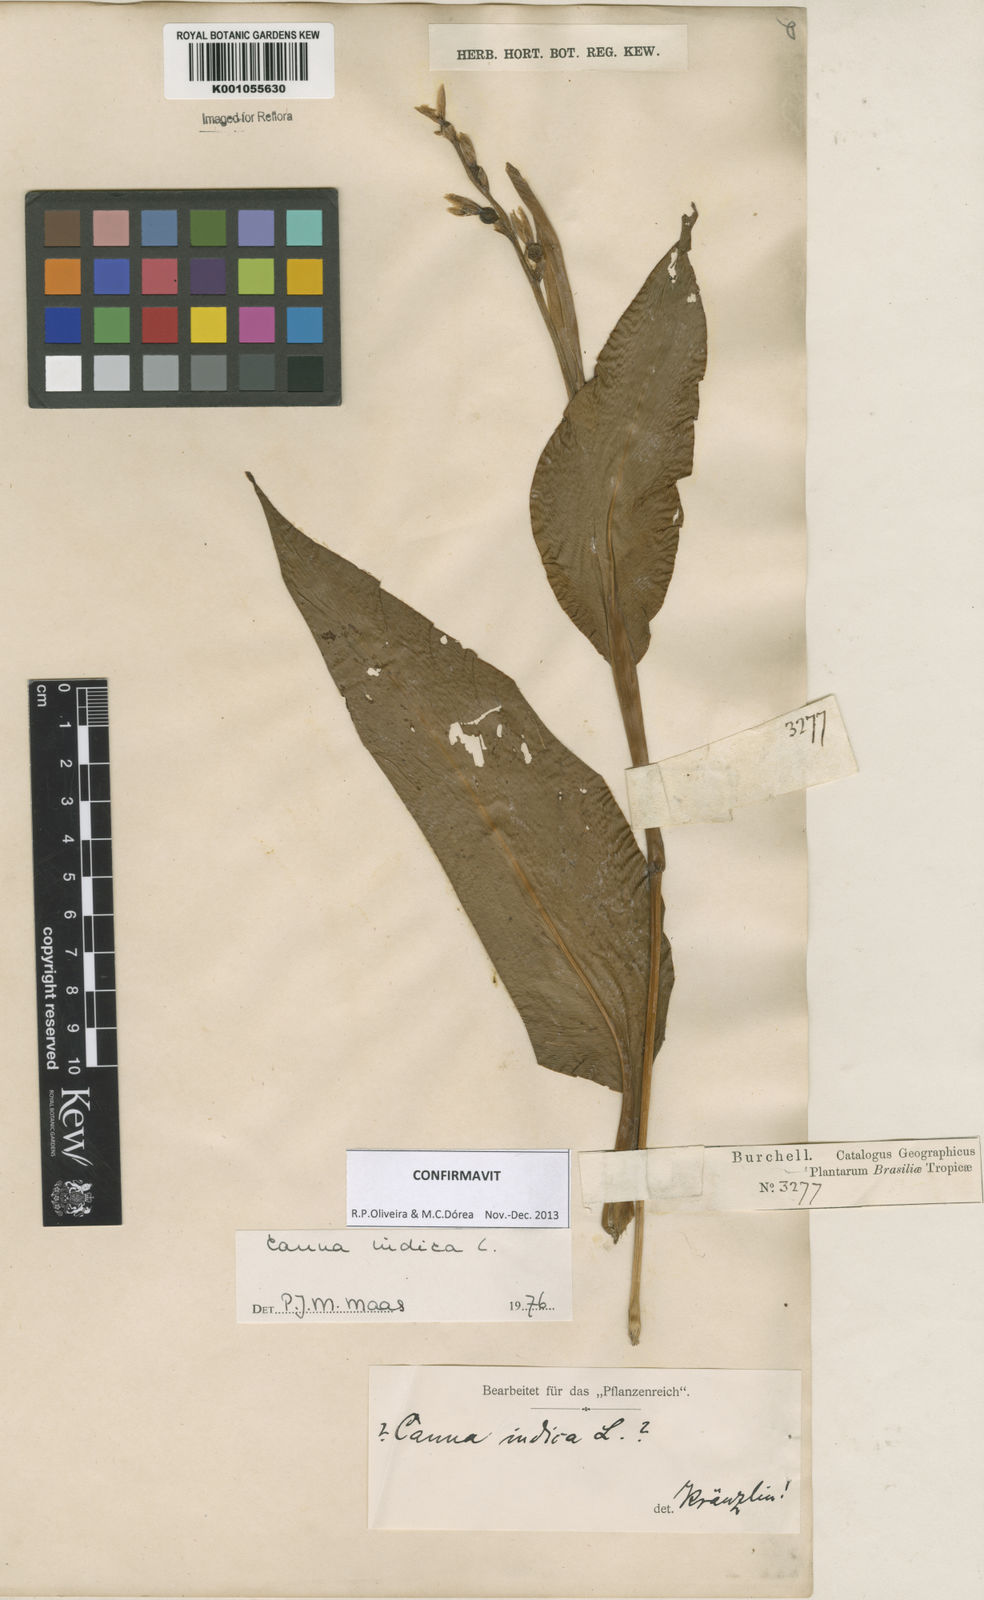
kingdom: Plantae
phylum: Tracheophyta
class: Liliopsida
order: Zingiberales
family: Cannaceae
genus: Canna
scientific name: Canna indica
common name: Indian shot
